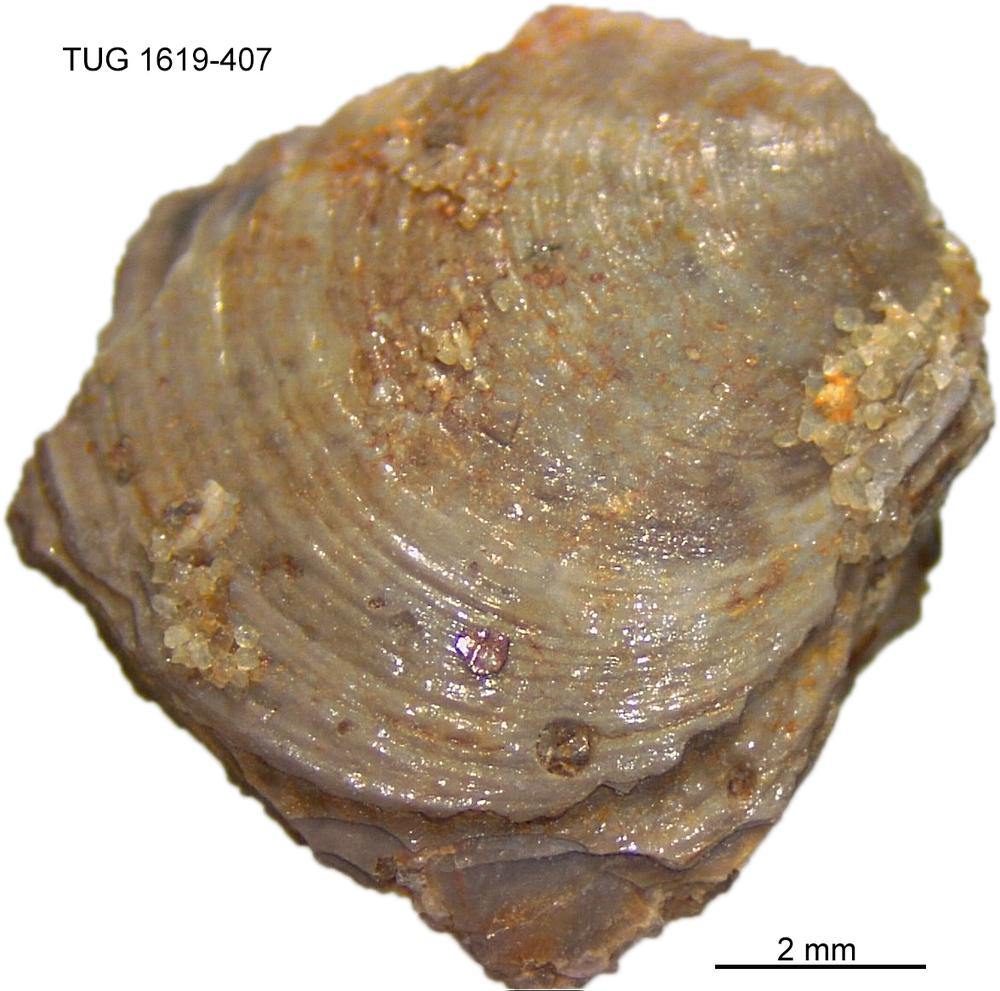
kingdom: Animalia
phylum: Porifera
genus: Ungula
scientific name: Ungula
